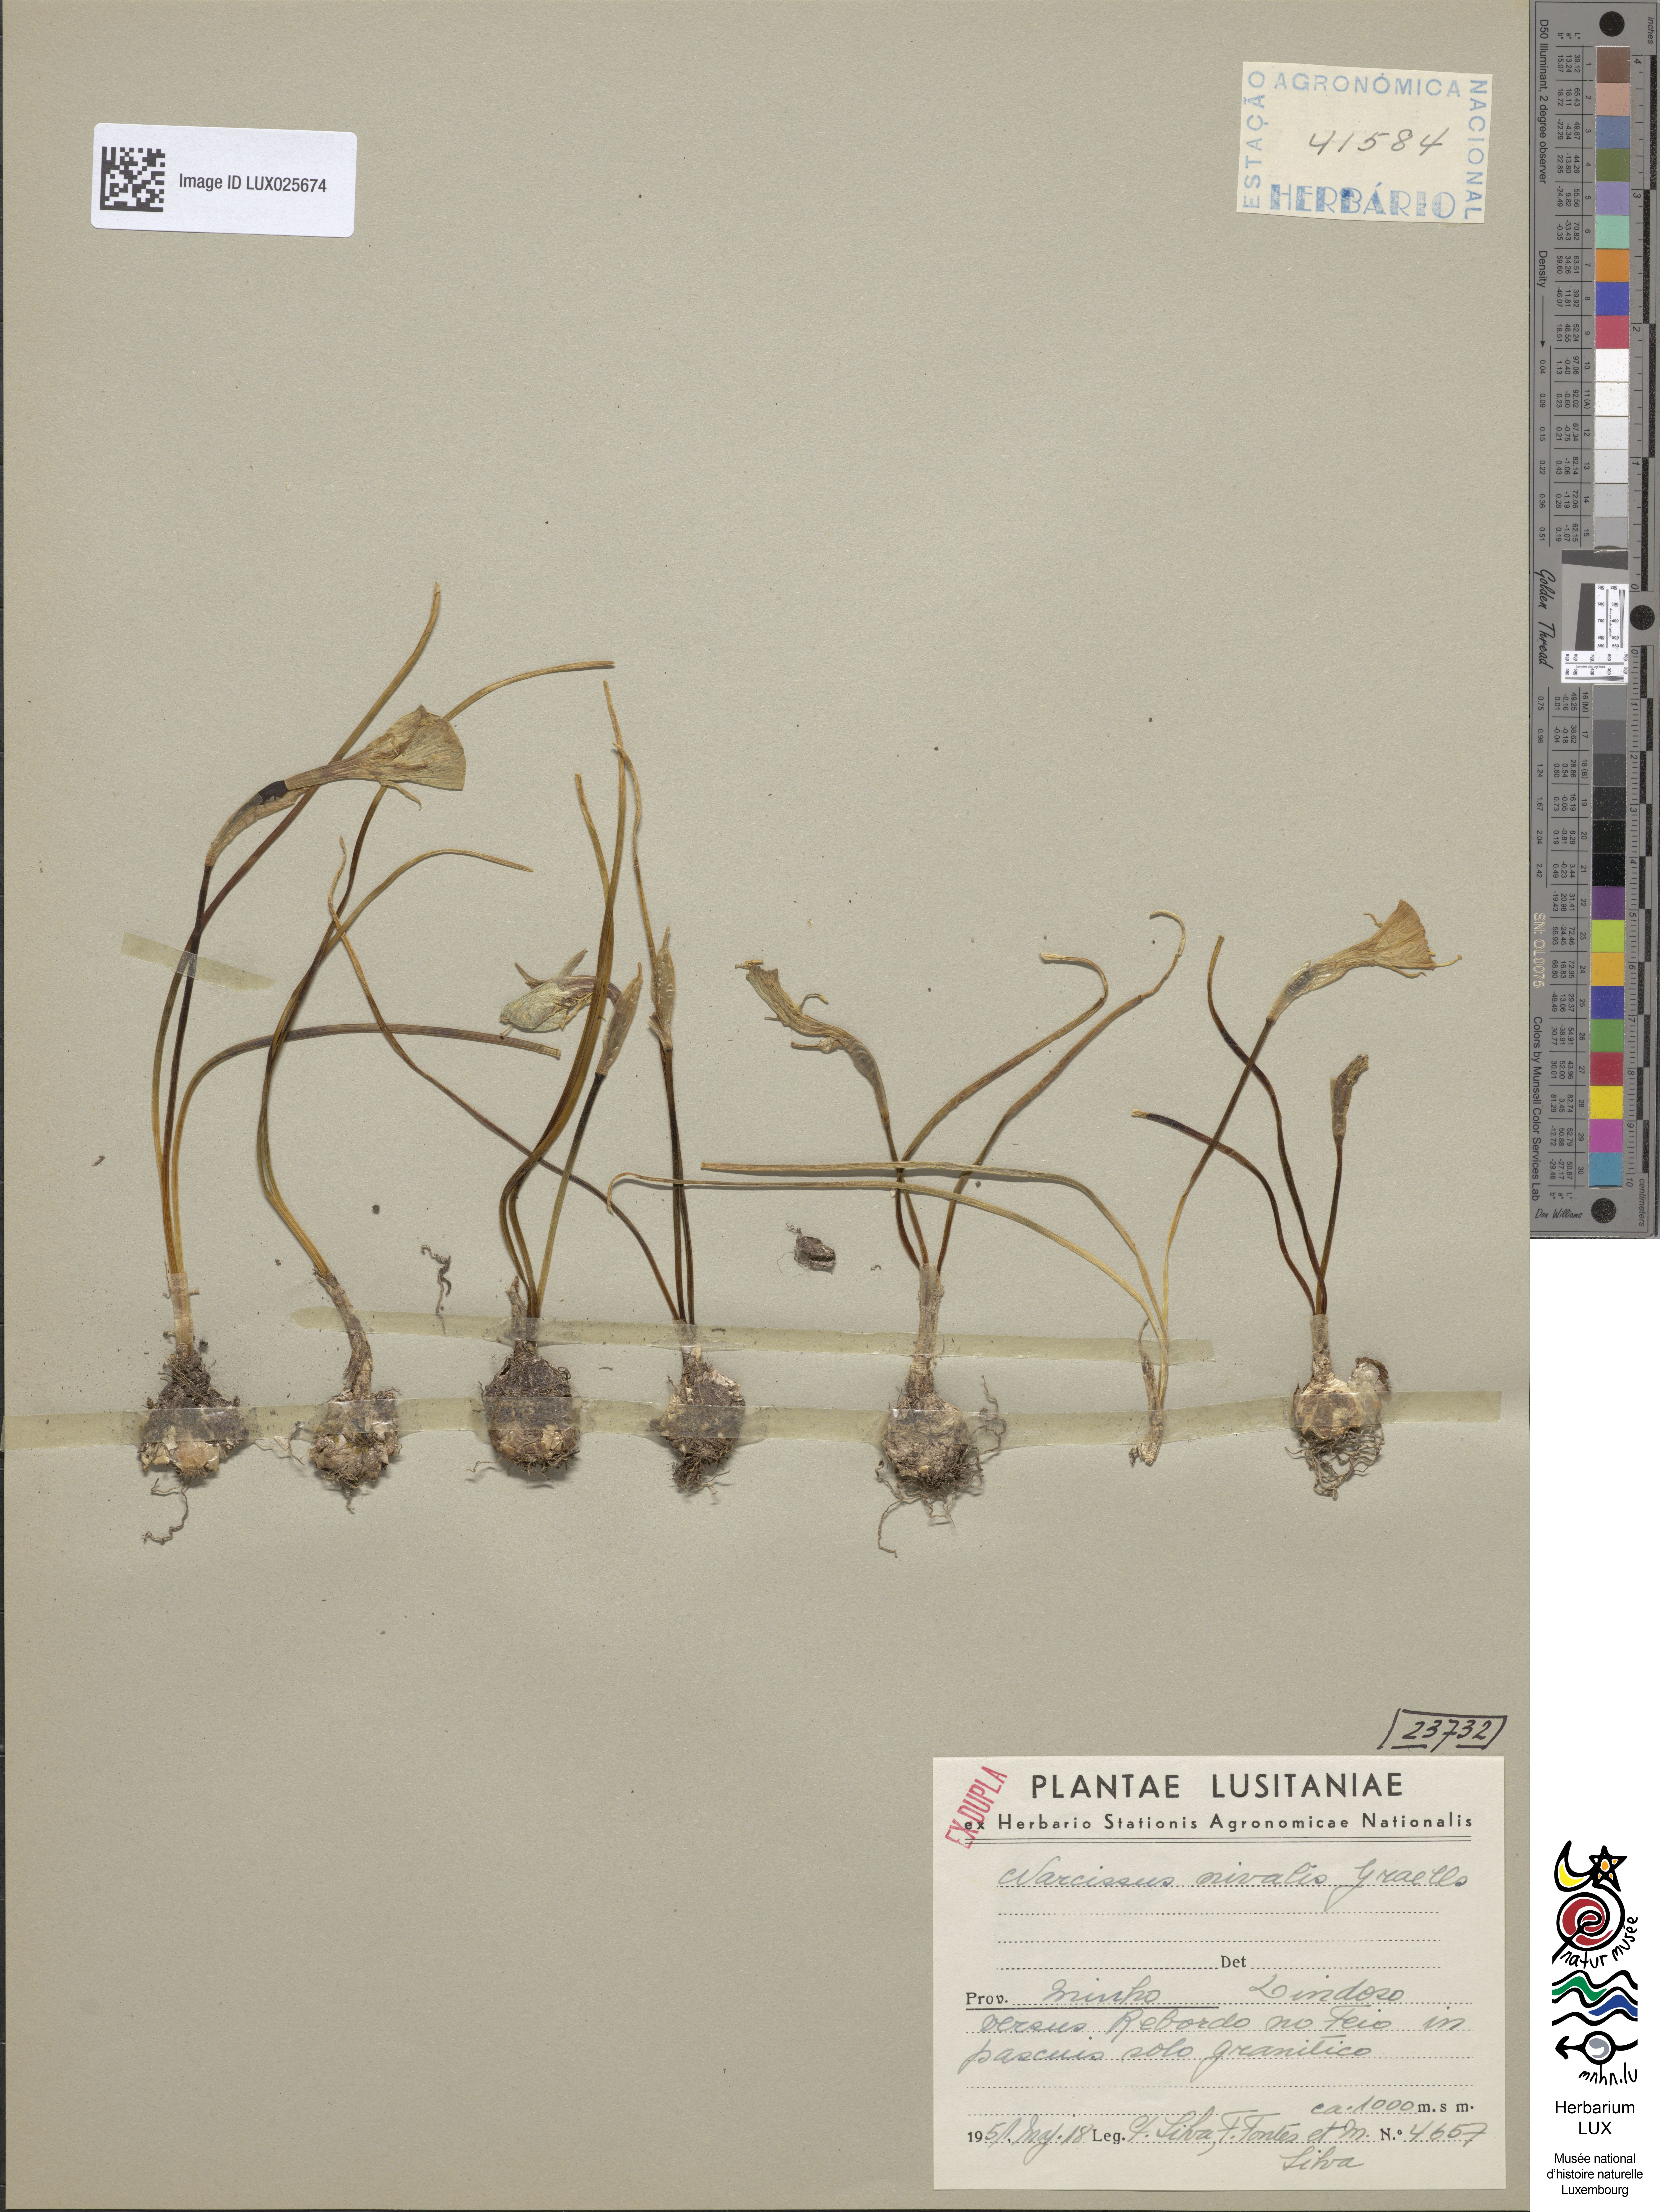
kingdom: Plantae
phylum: Tracheophyta
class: Liliopsida
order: Asparagales
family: Amaryllidaceae
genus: Narcissus
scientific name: Narcissus bulbocodium
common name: Hoop-petticoat daffodil
